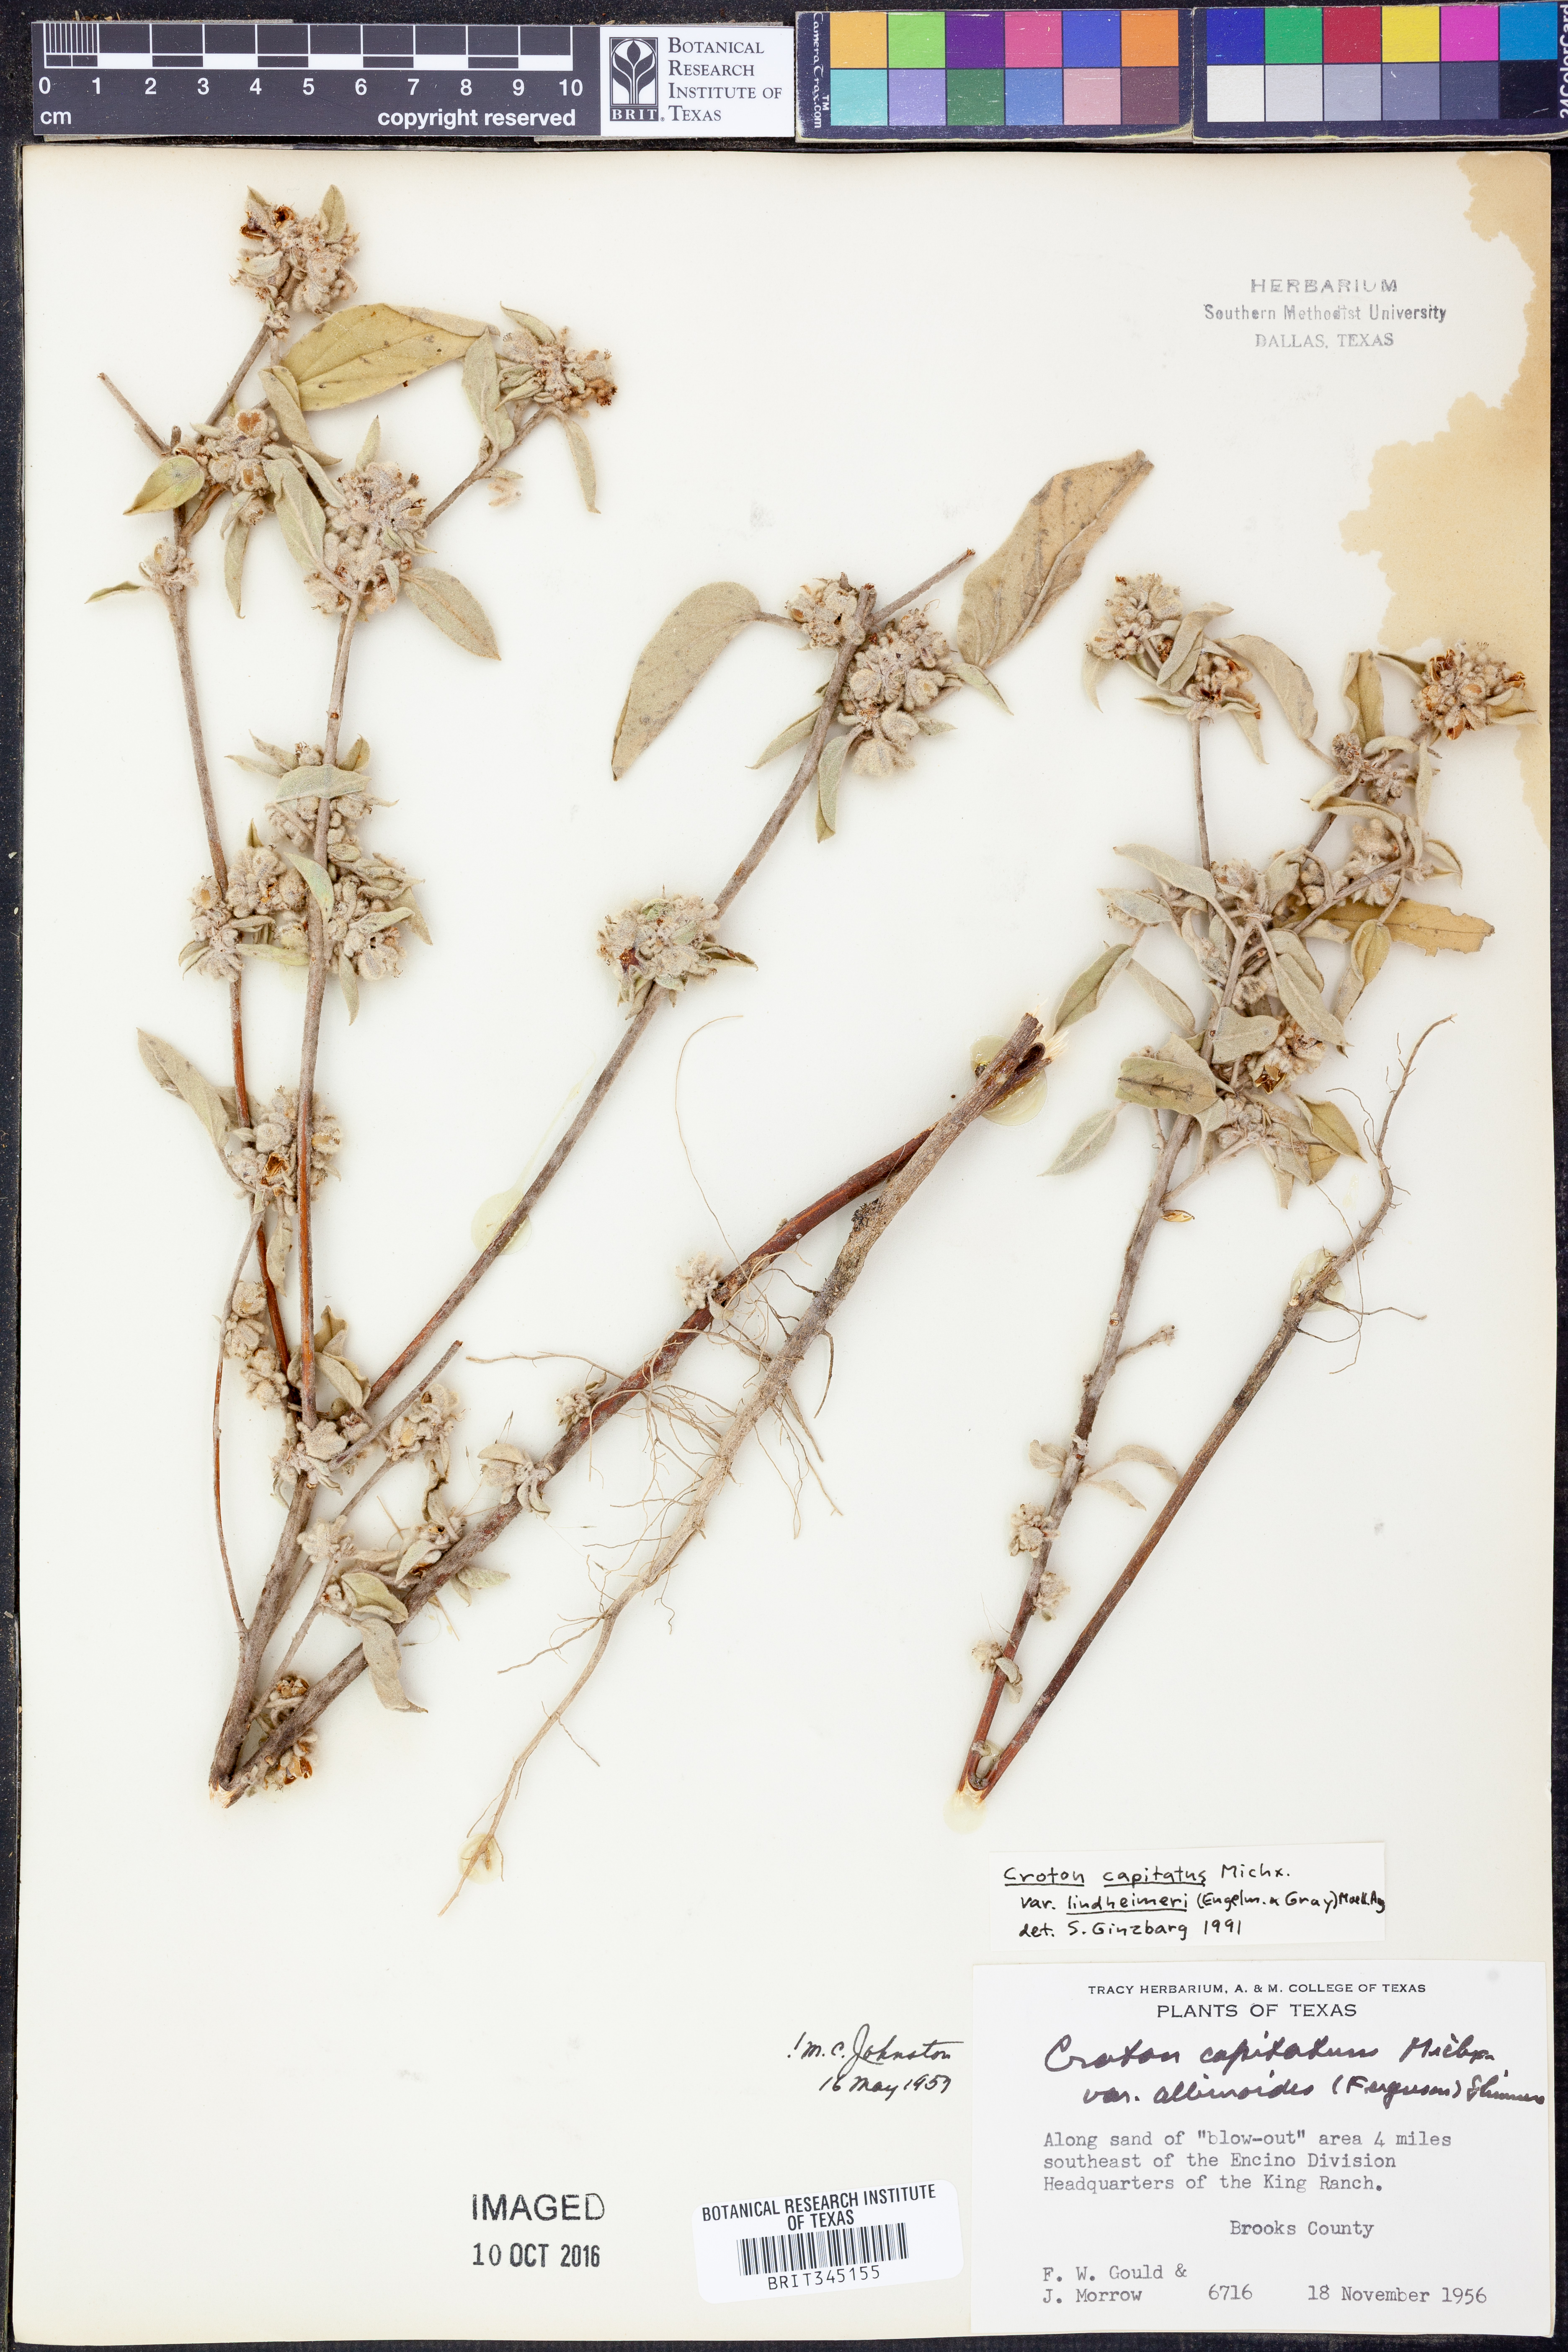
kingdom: Plantae
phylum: Tracheophyta
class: Magnoliopsida
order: Malpighiales
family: Euphorbiaceae
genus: Croton
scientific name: Croton lindheimeri
